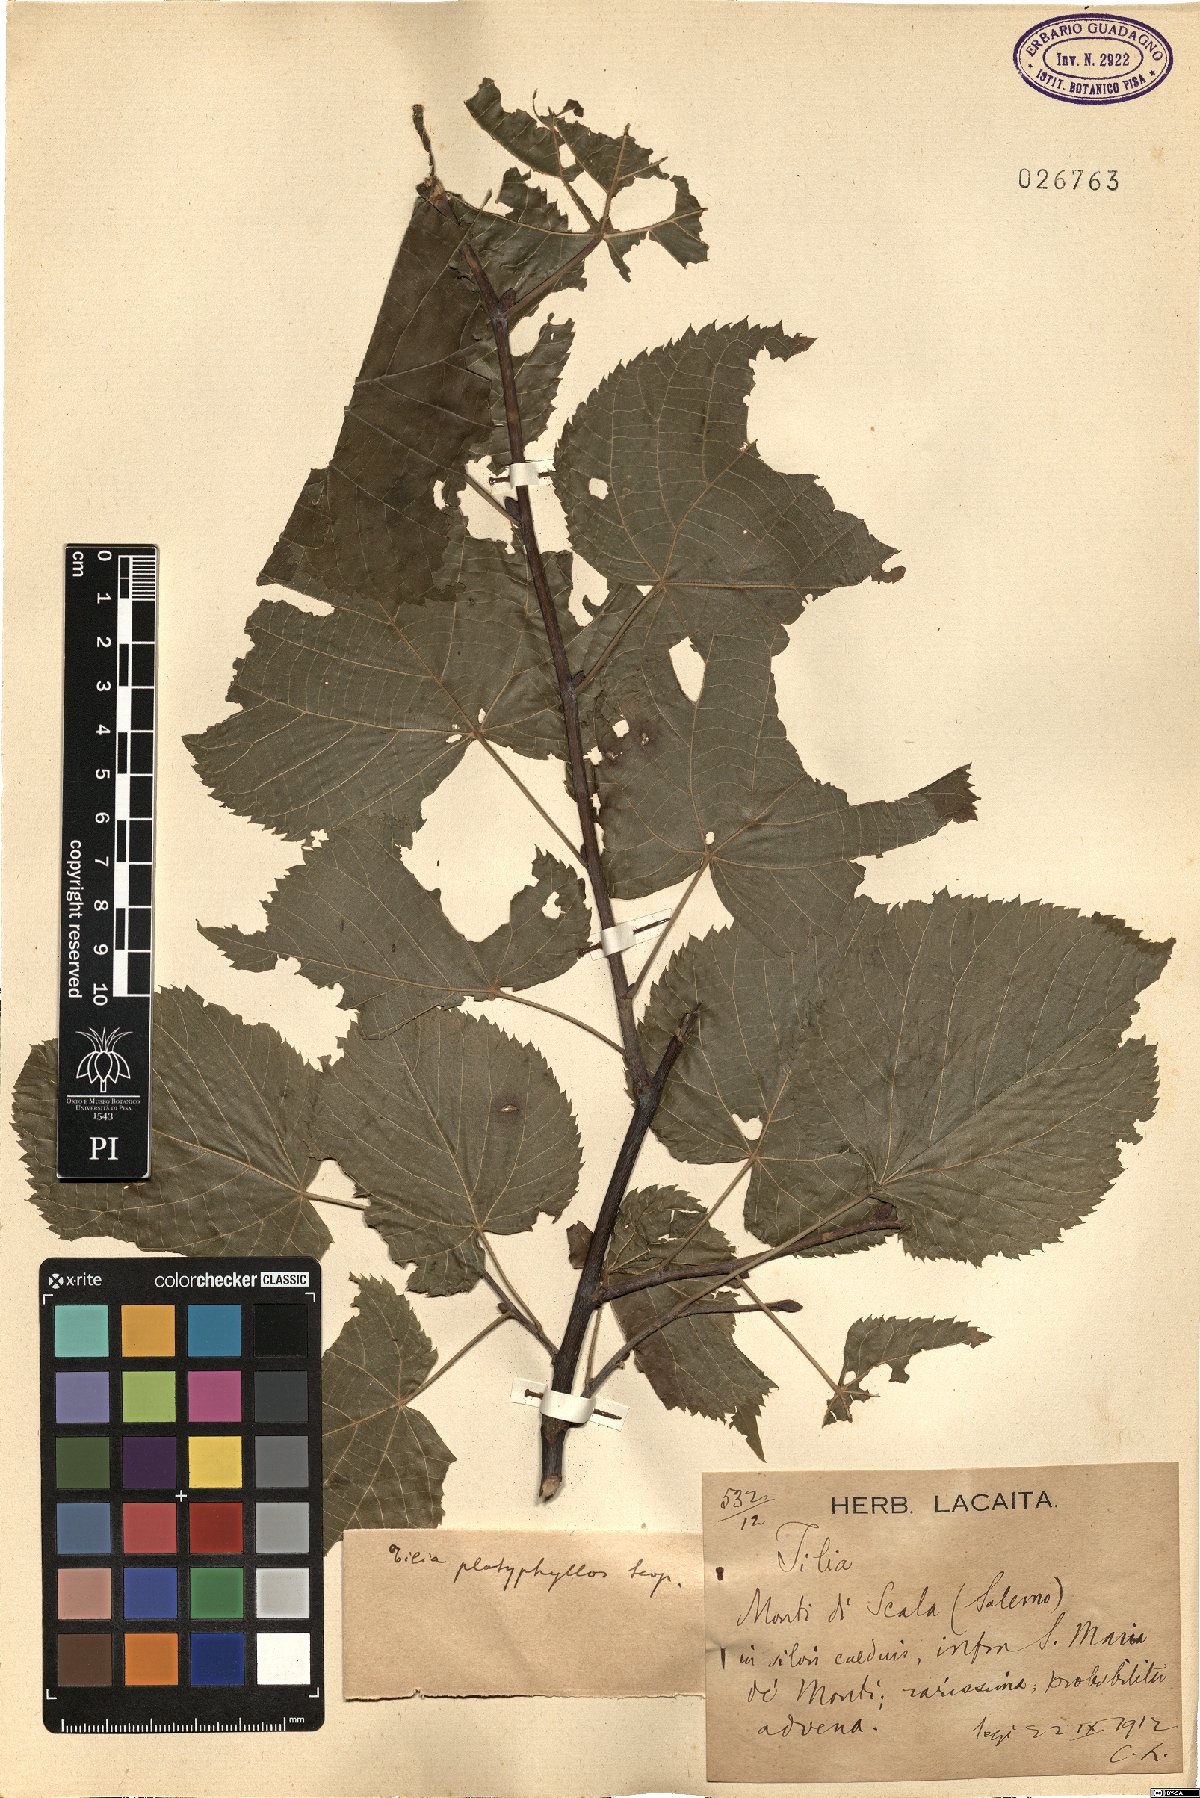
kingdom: Plantae
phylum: Tracheophyta
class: Magnoliopsida
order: Malvales
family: Malvaceae
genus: Tilia
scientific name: Tilia platyphyllos
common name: Large-leaved lime
